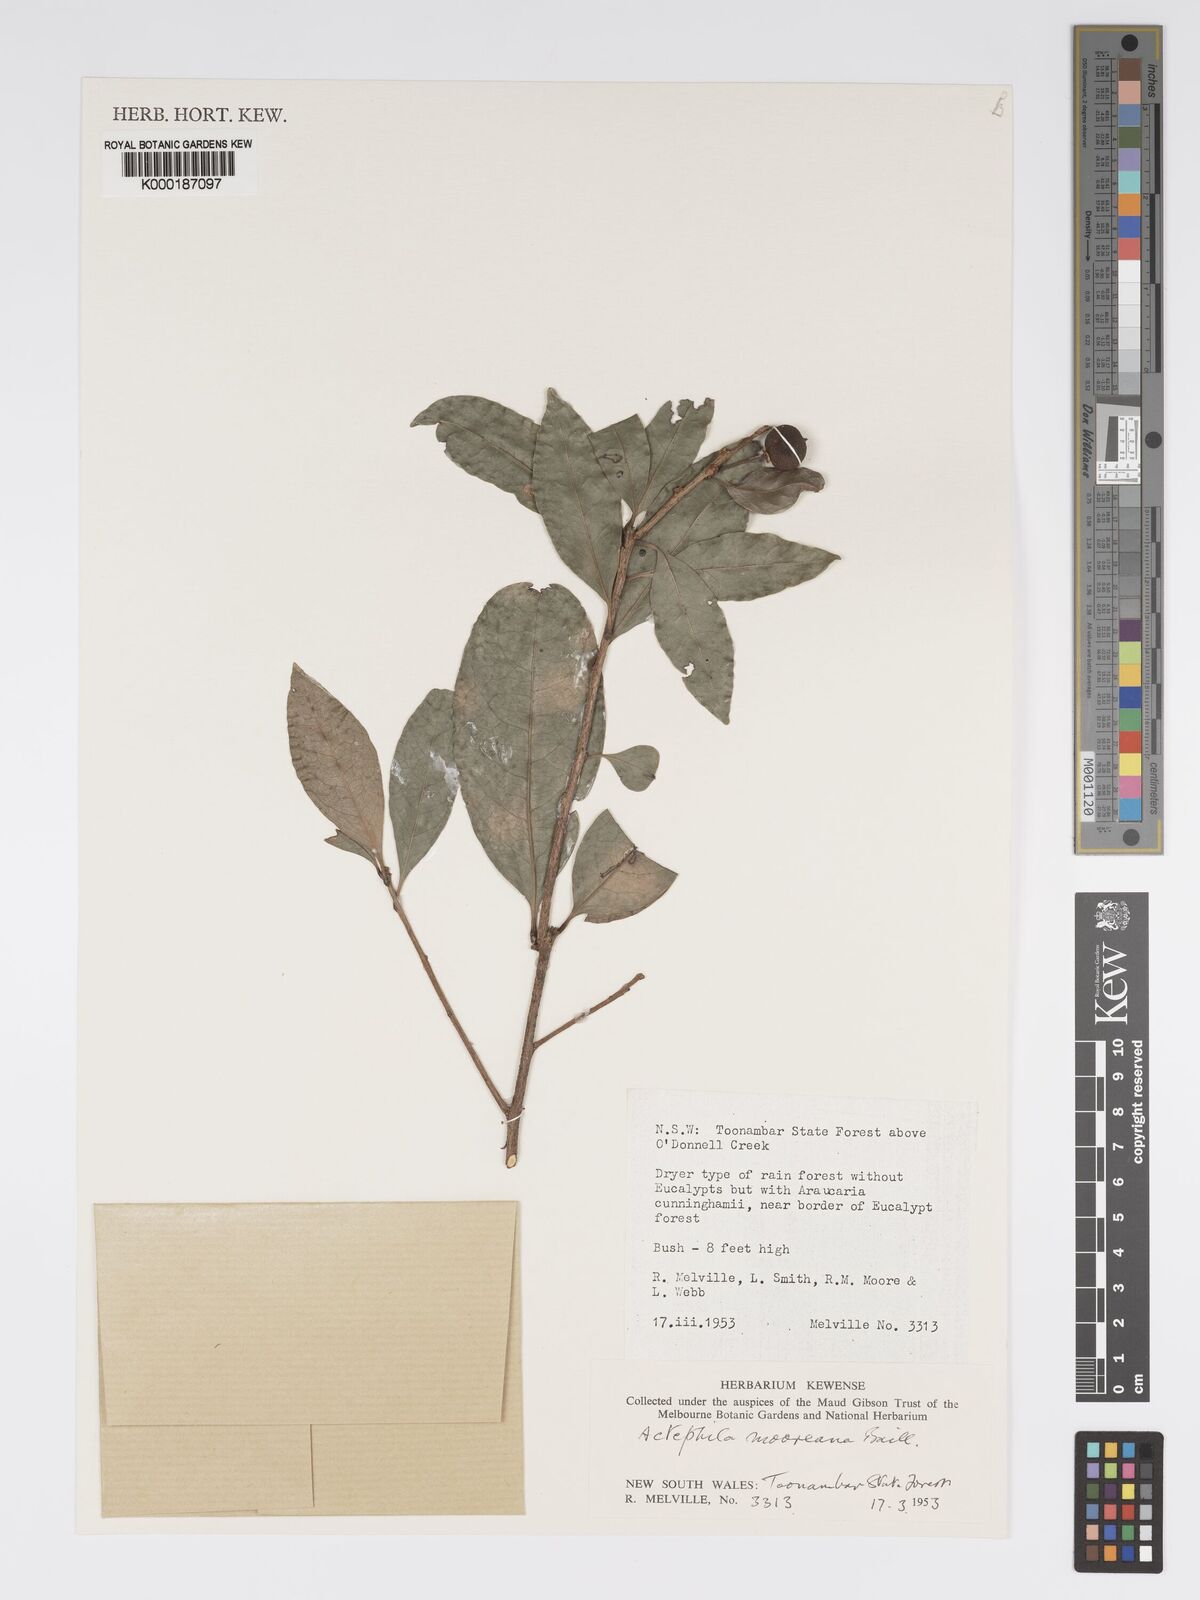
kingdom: Plantae
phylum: Tracheophyta
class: Magnoliopsida
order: Malpighiales
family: Phyllanthaceae
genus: Actephila
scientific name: Actephila lindleyi
